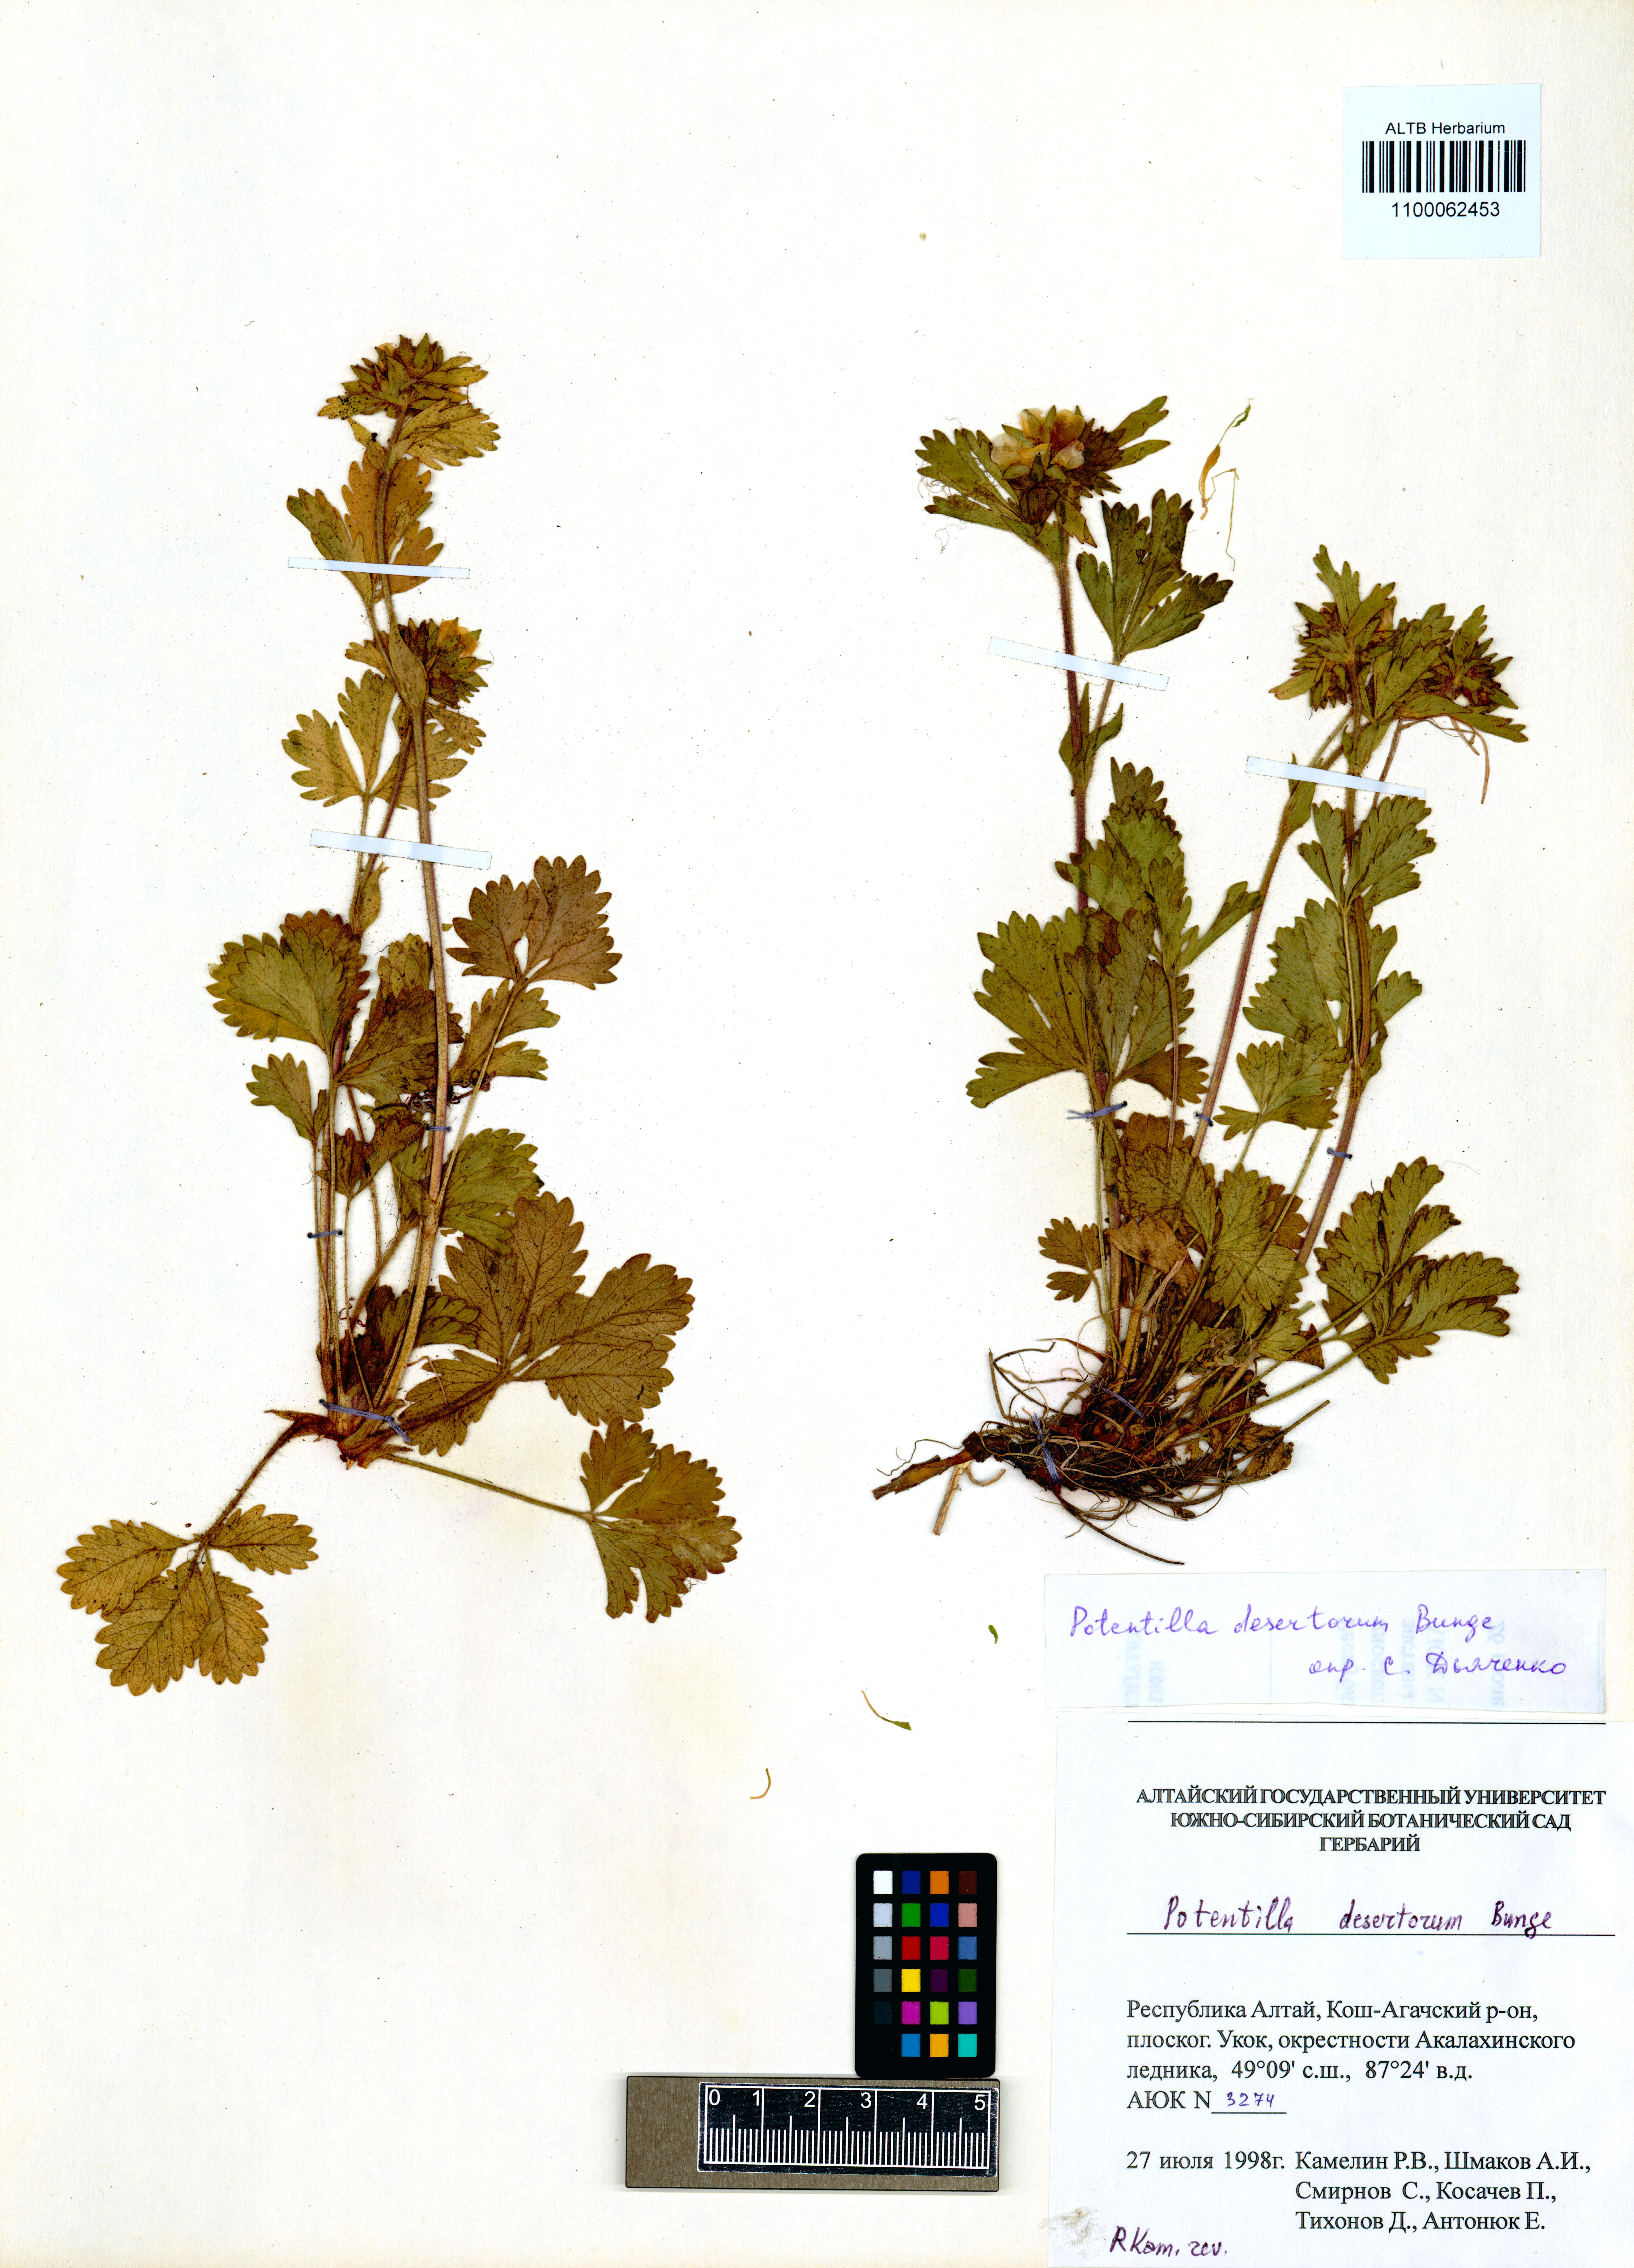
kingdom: Plantae
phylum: Tracheophyta
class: Magnoliopsida
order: Rosales
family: Rosaceae
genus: Potentilla
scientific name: Potentilla desertorum
